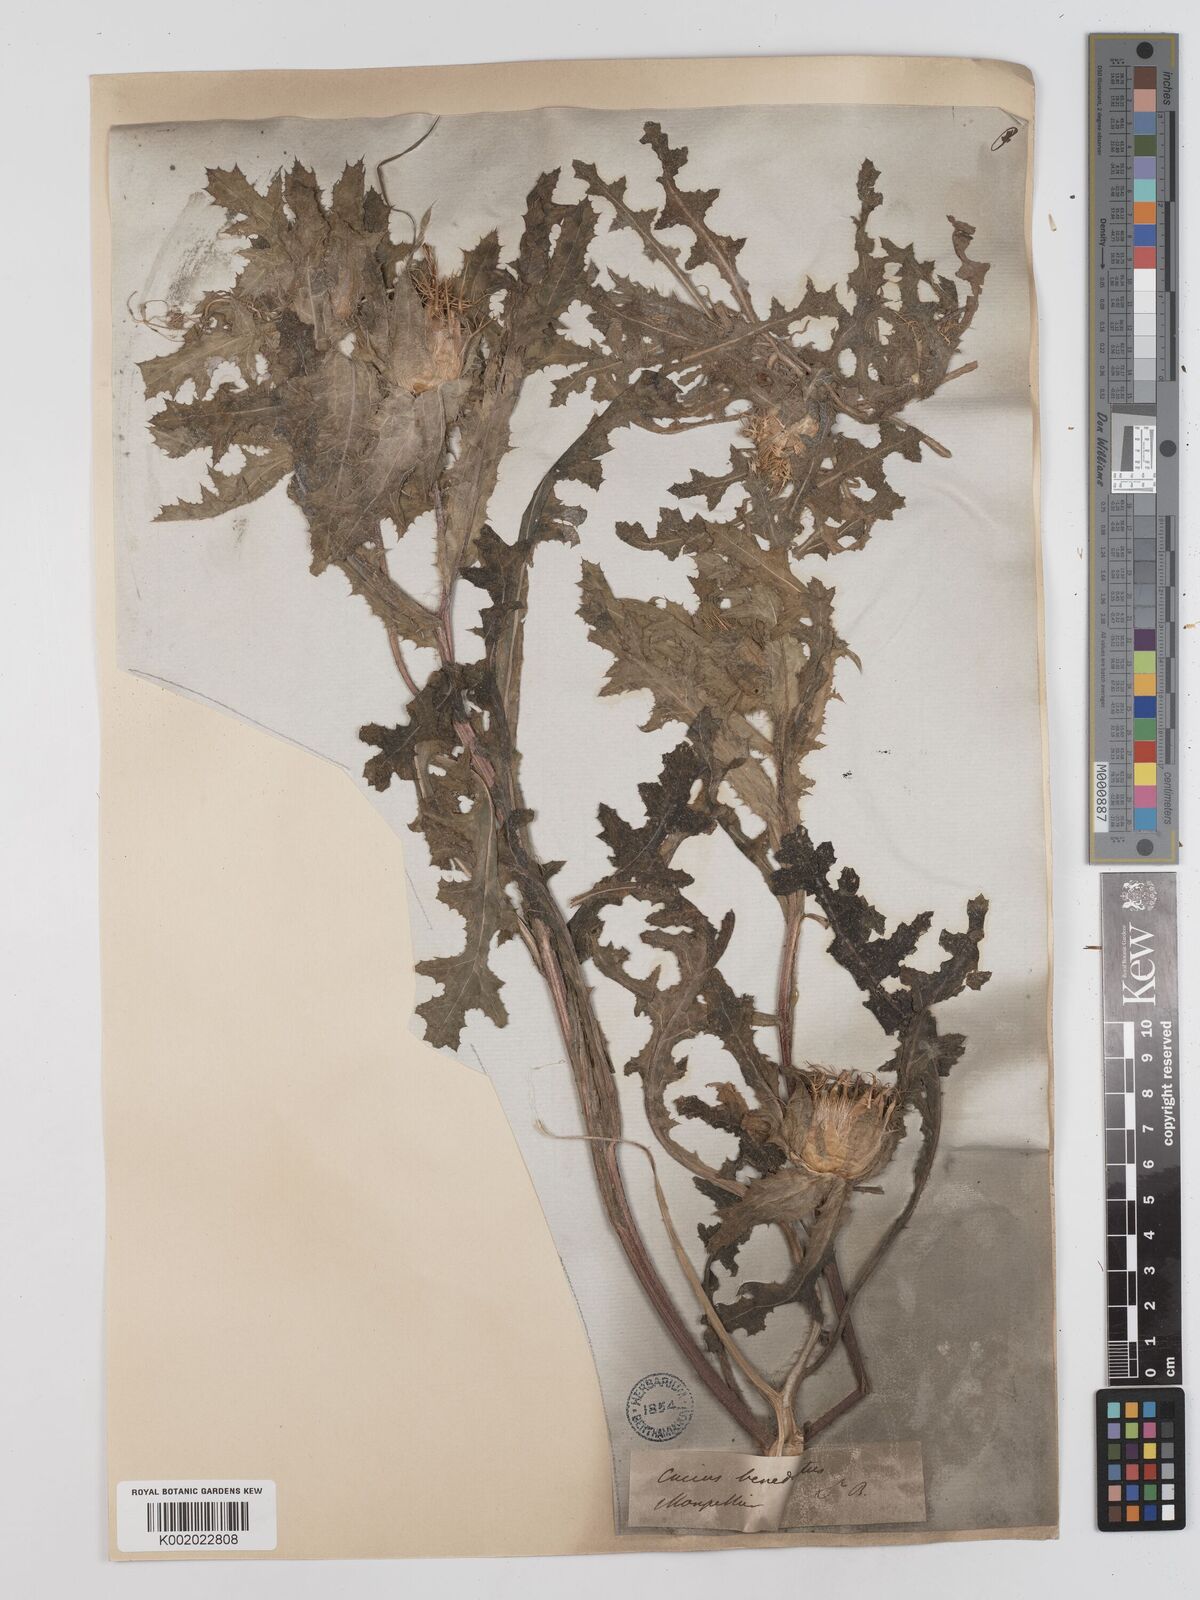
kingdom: Plantae
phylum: Tracheophyta
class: Magnoliopsida
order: Asterales
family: Asteraceae
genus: Centaurea
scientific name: Centaurea benedicta
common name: Blessed thistle
